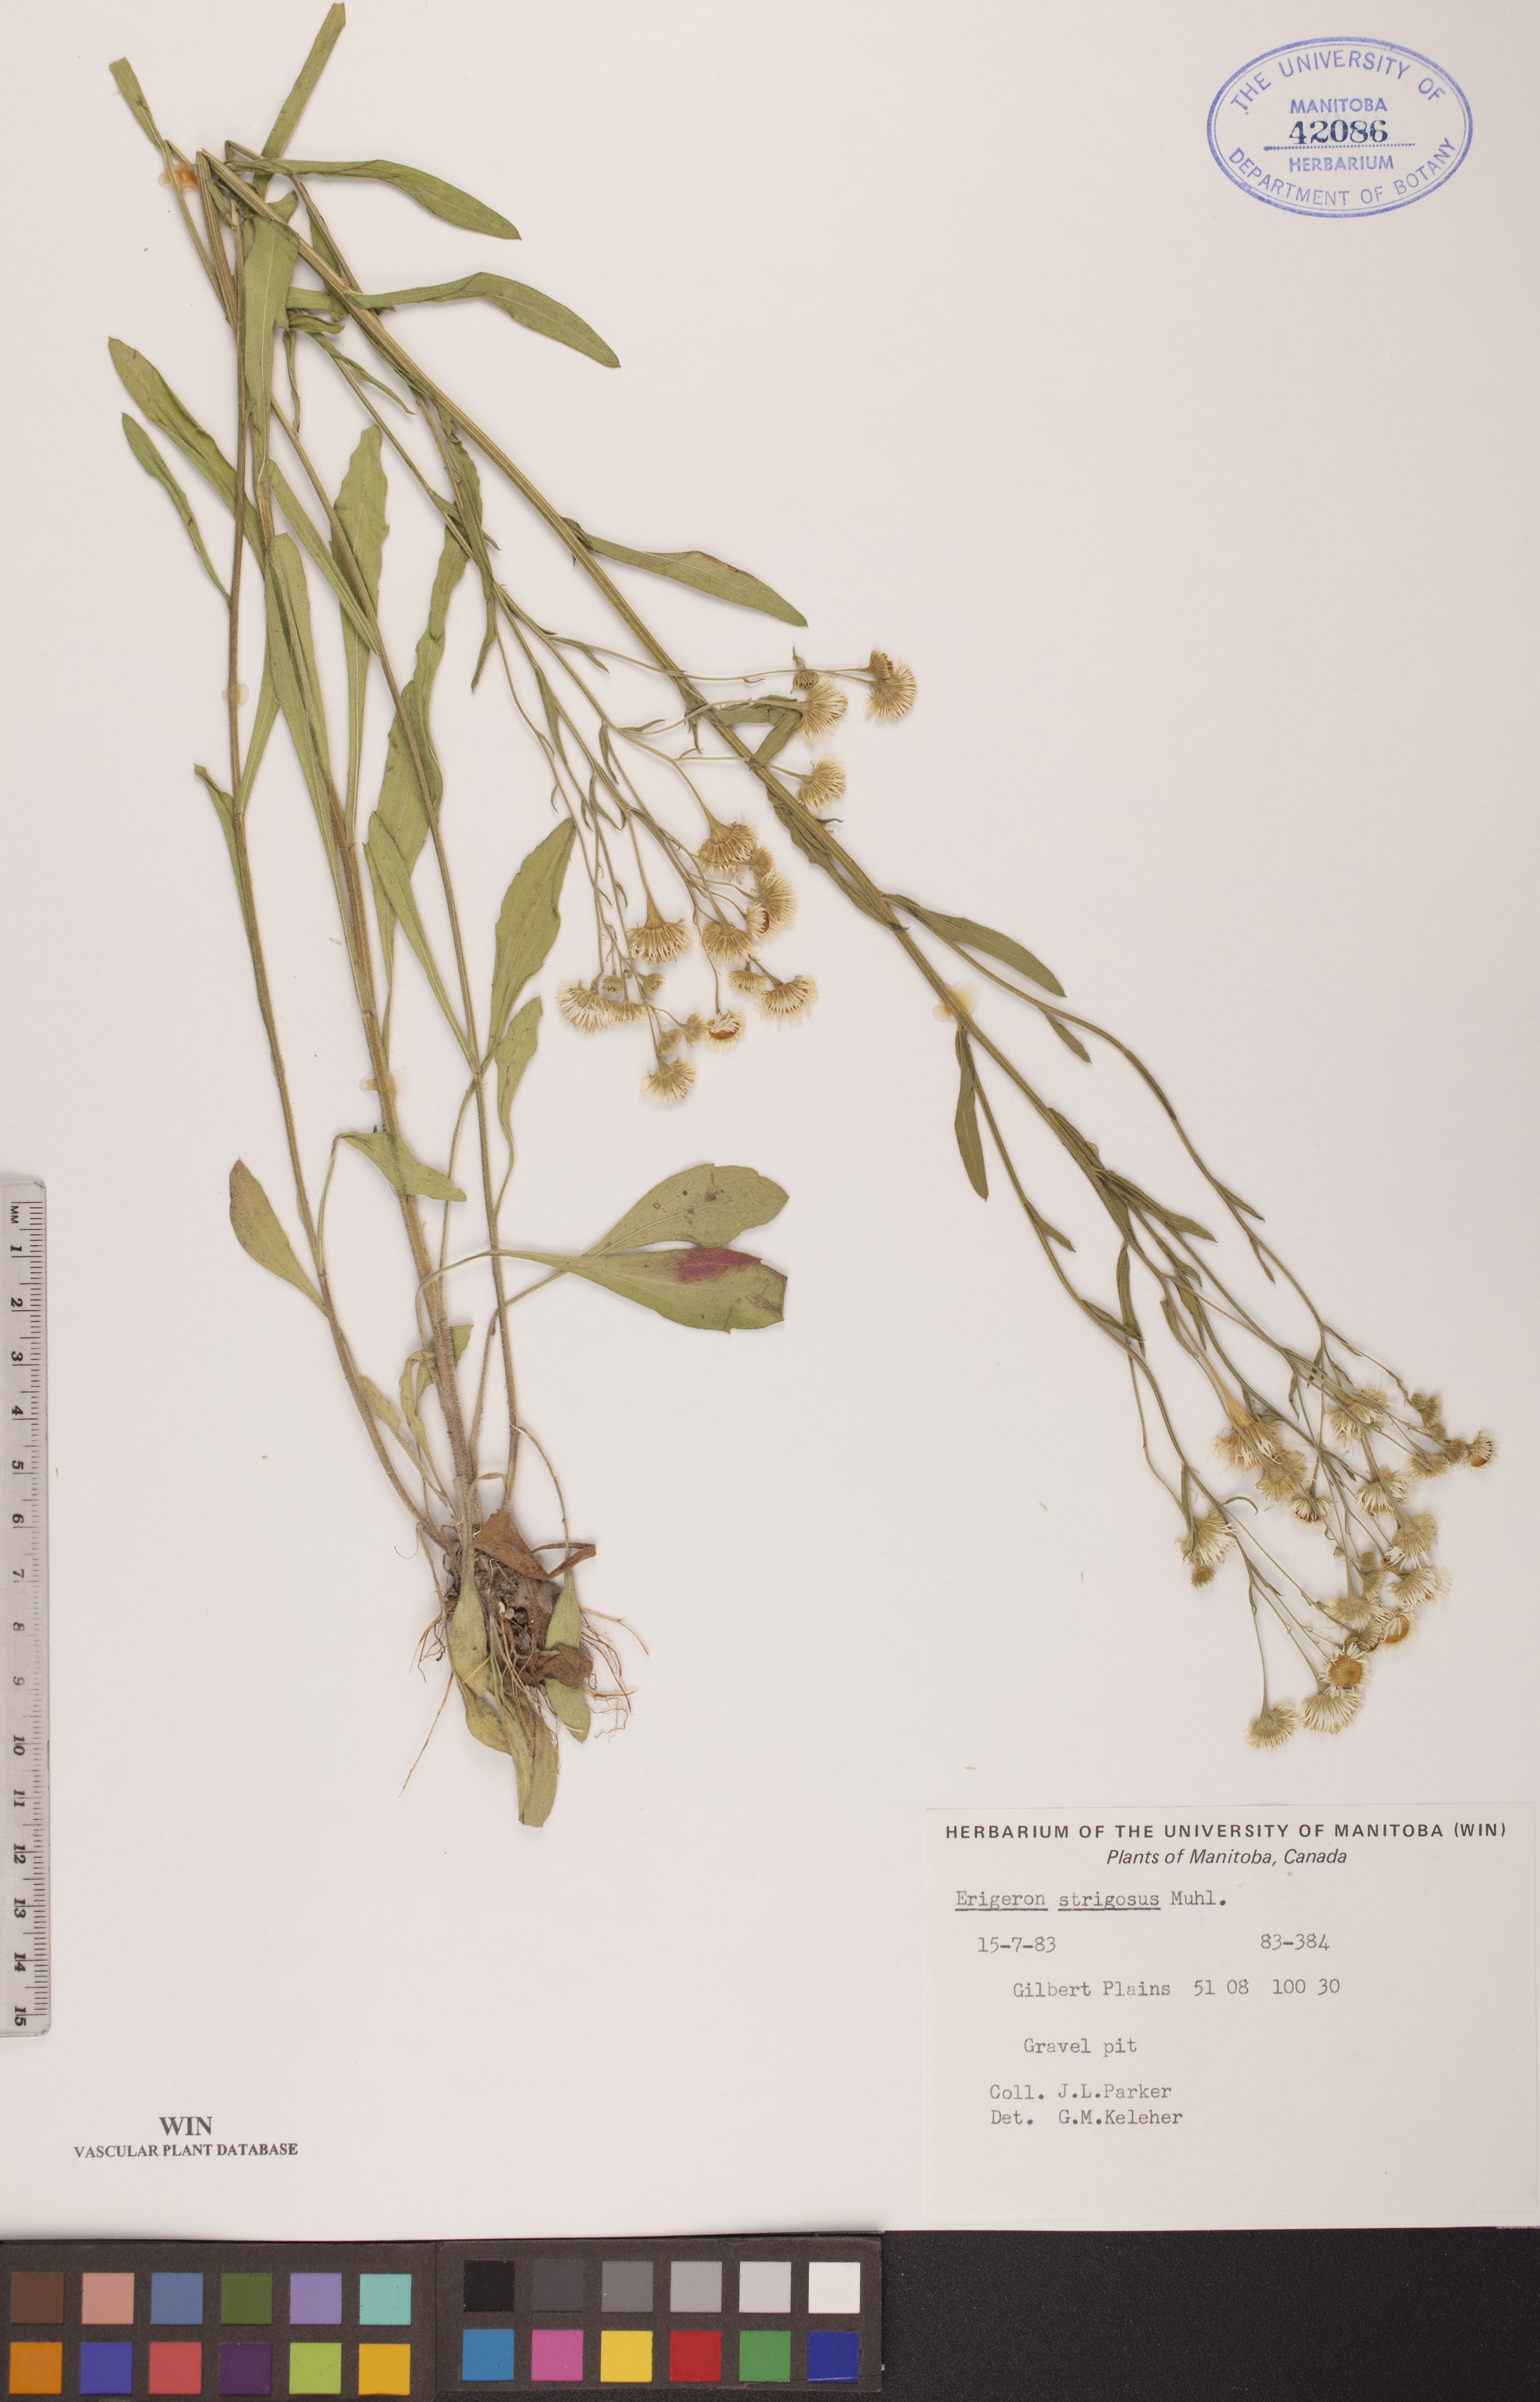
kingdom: Plantae
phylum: Tracheophyta
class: Magnoliopsida
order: Asterales
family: Asteraceae
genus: Erigeron
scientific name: Erigeron strigosus
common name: Common eastern fleabane
